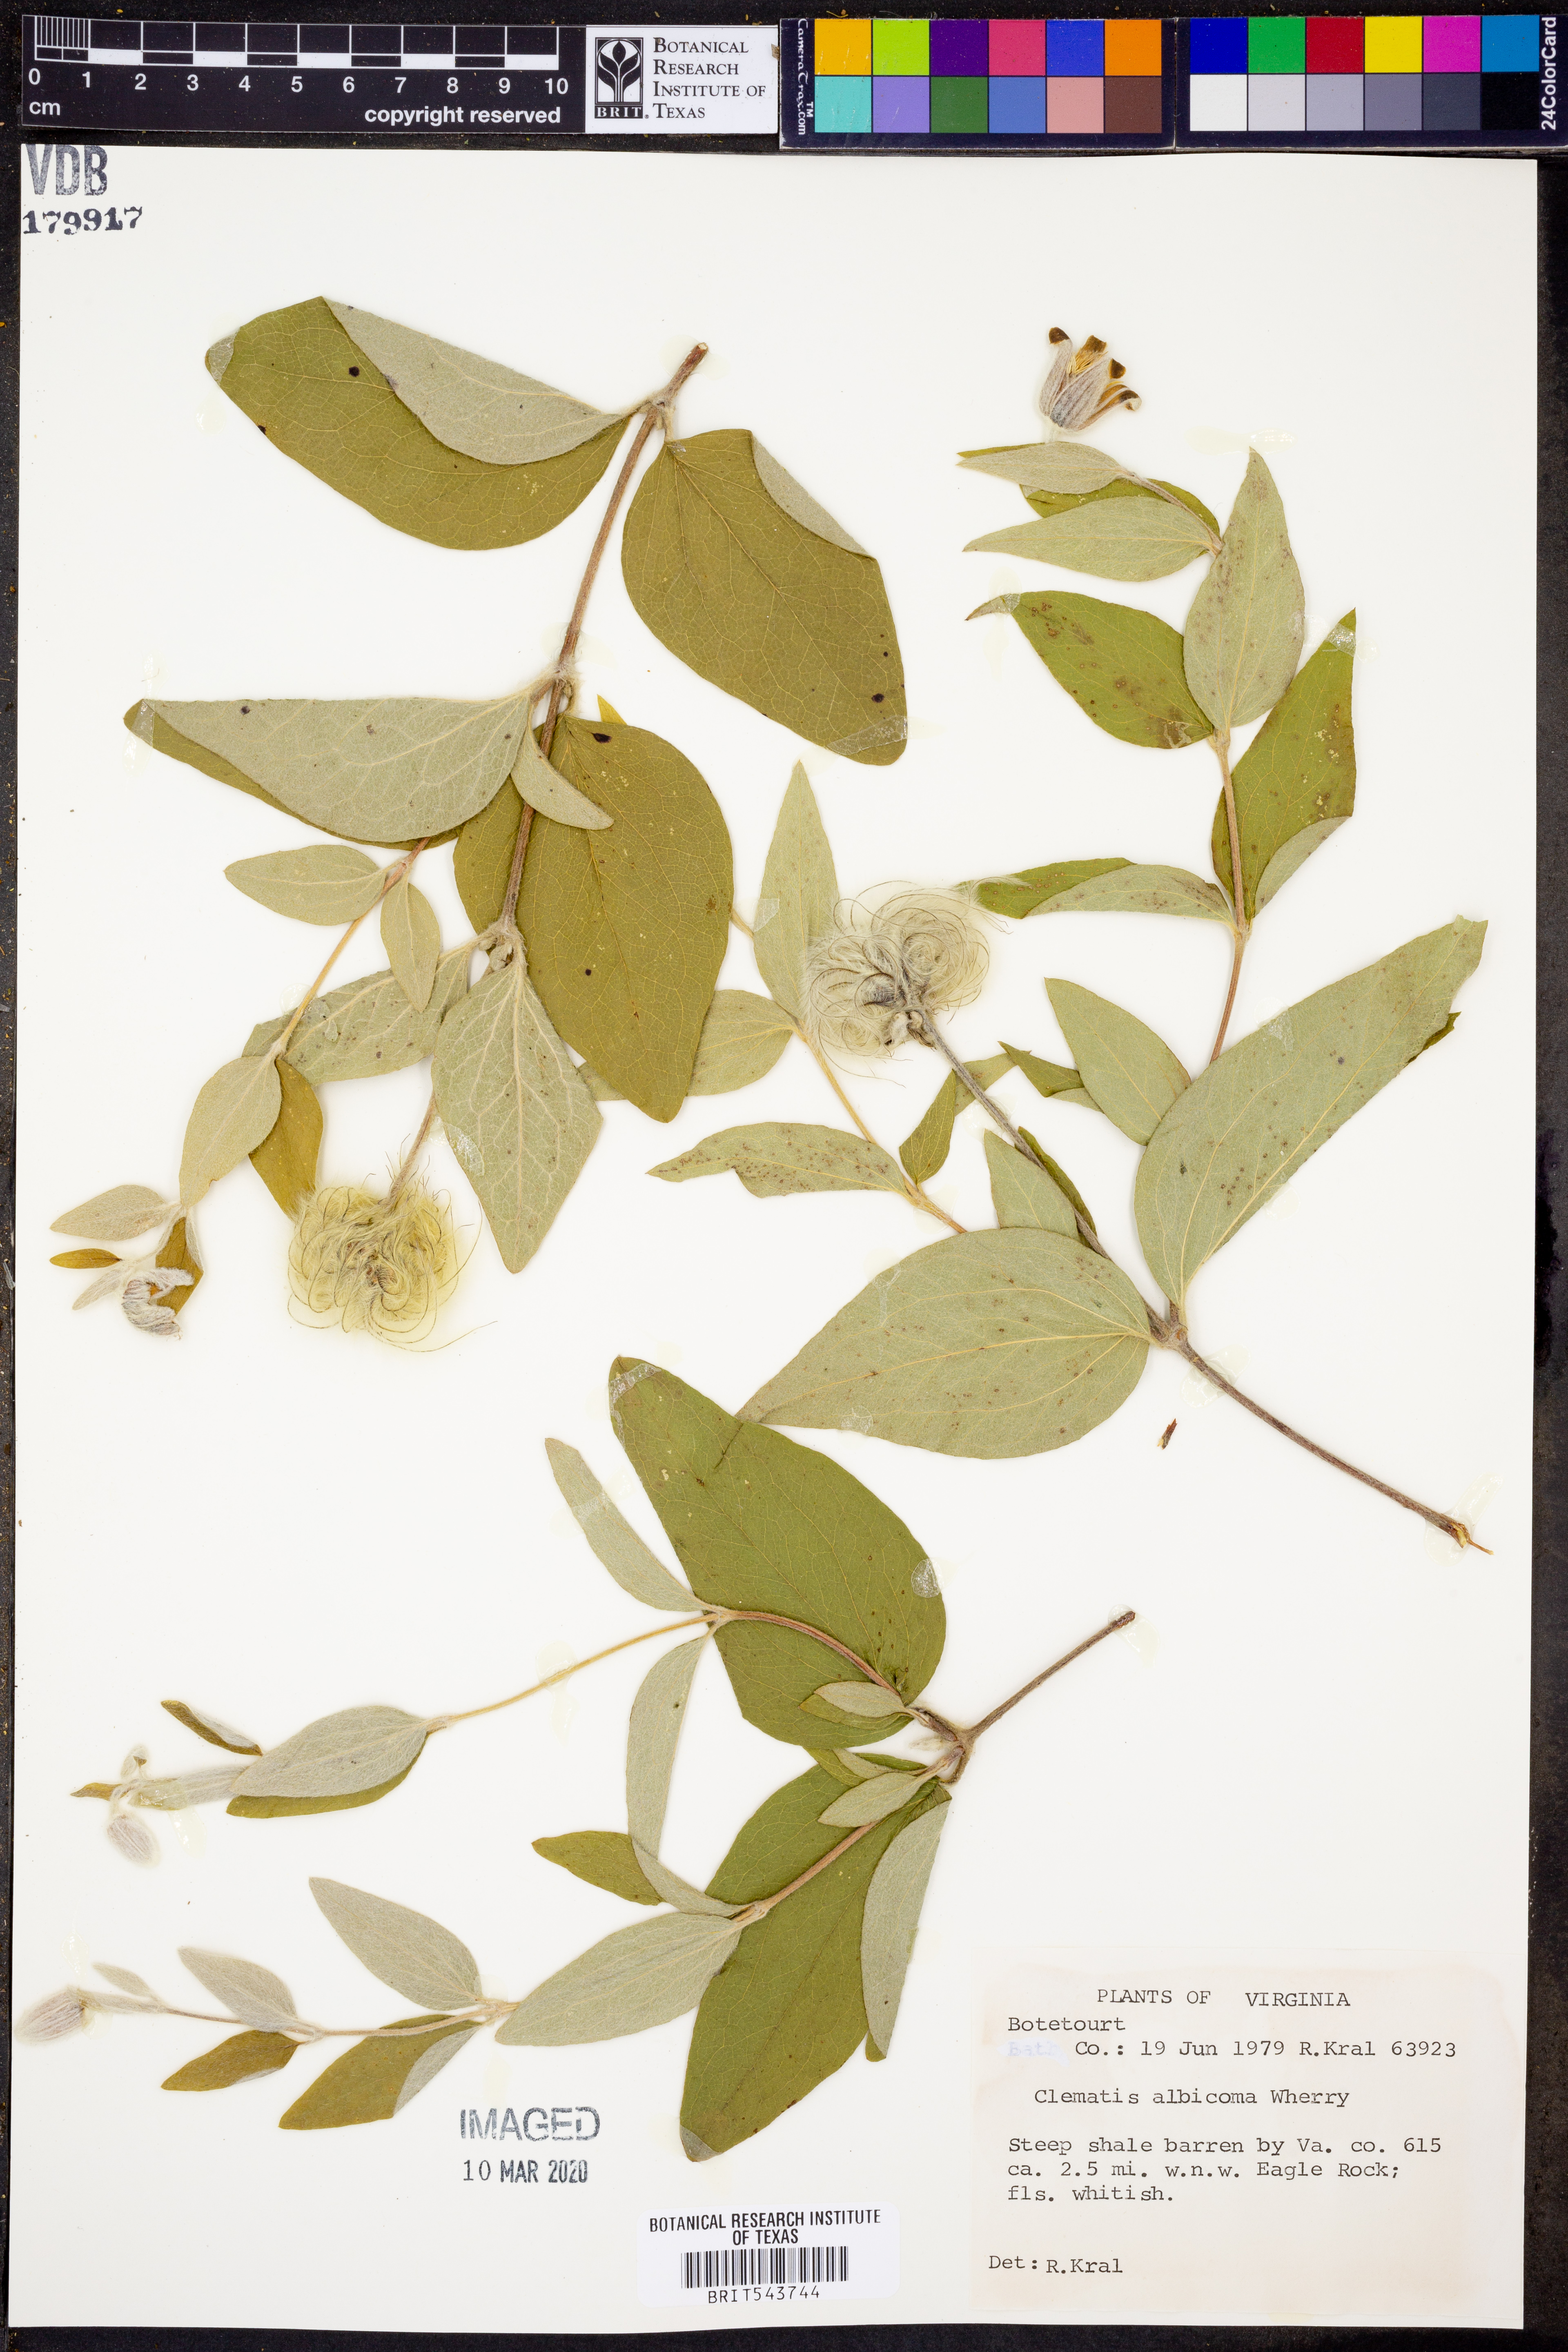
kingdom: Plantae
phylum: Tracheophyta
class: Magnoliopsida
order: Ranunculales
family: Ranunculaceae
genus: Clematis
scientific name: Clematis albicoma
